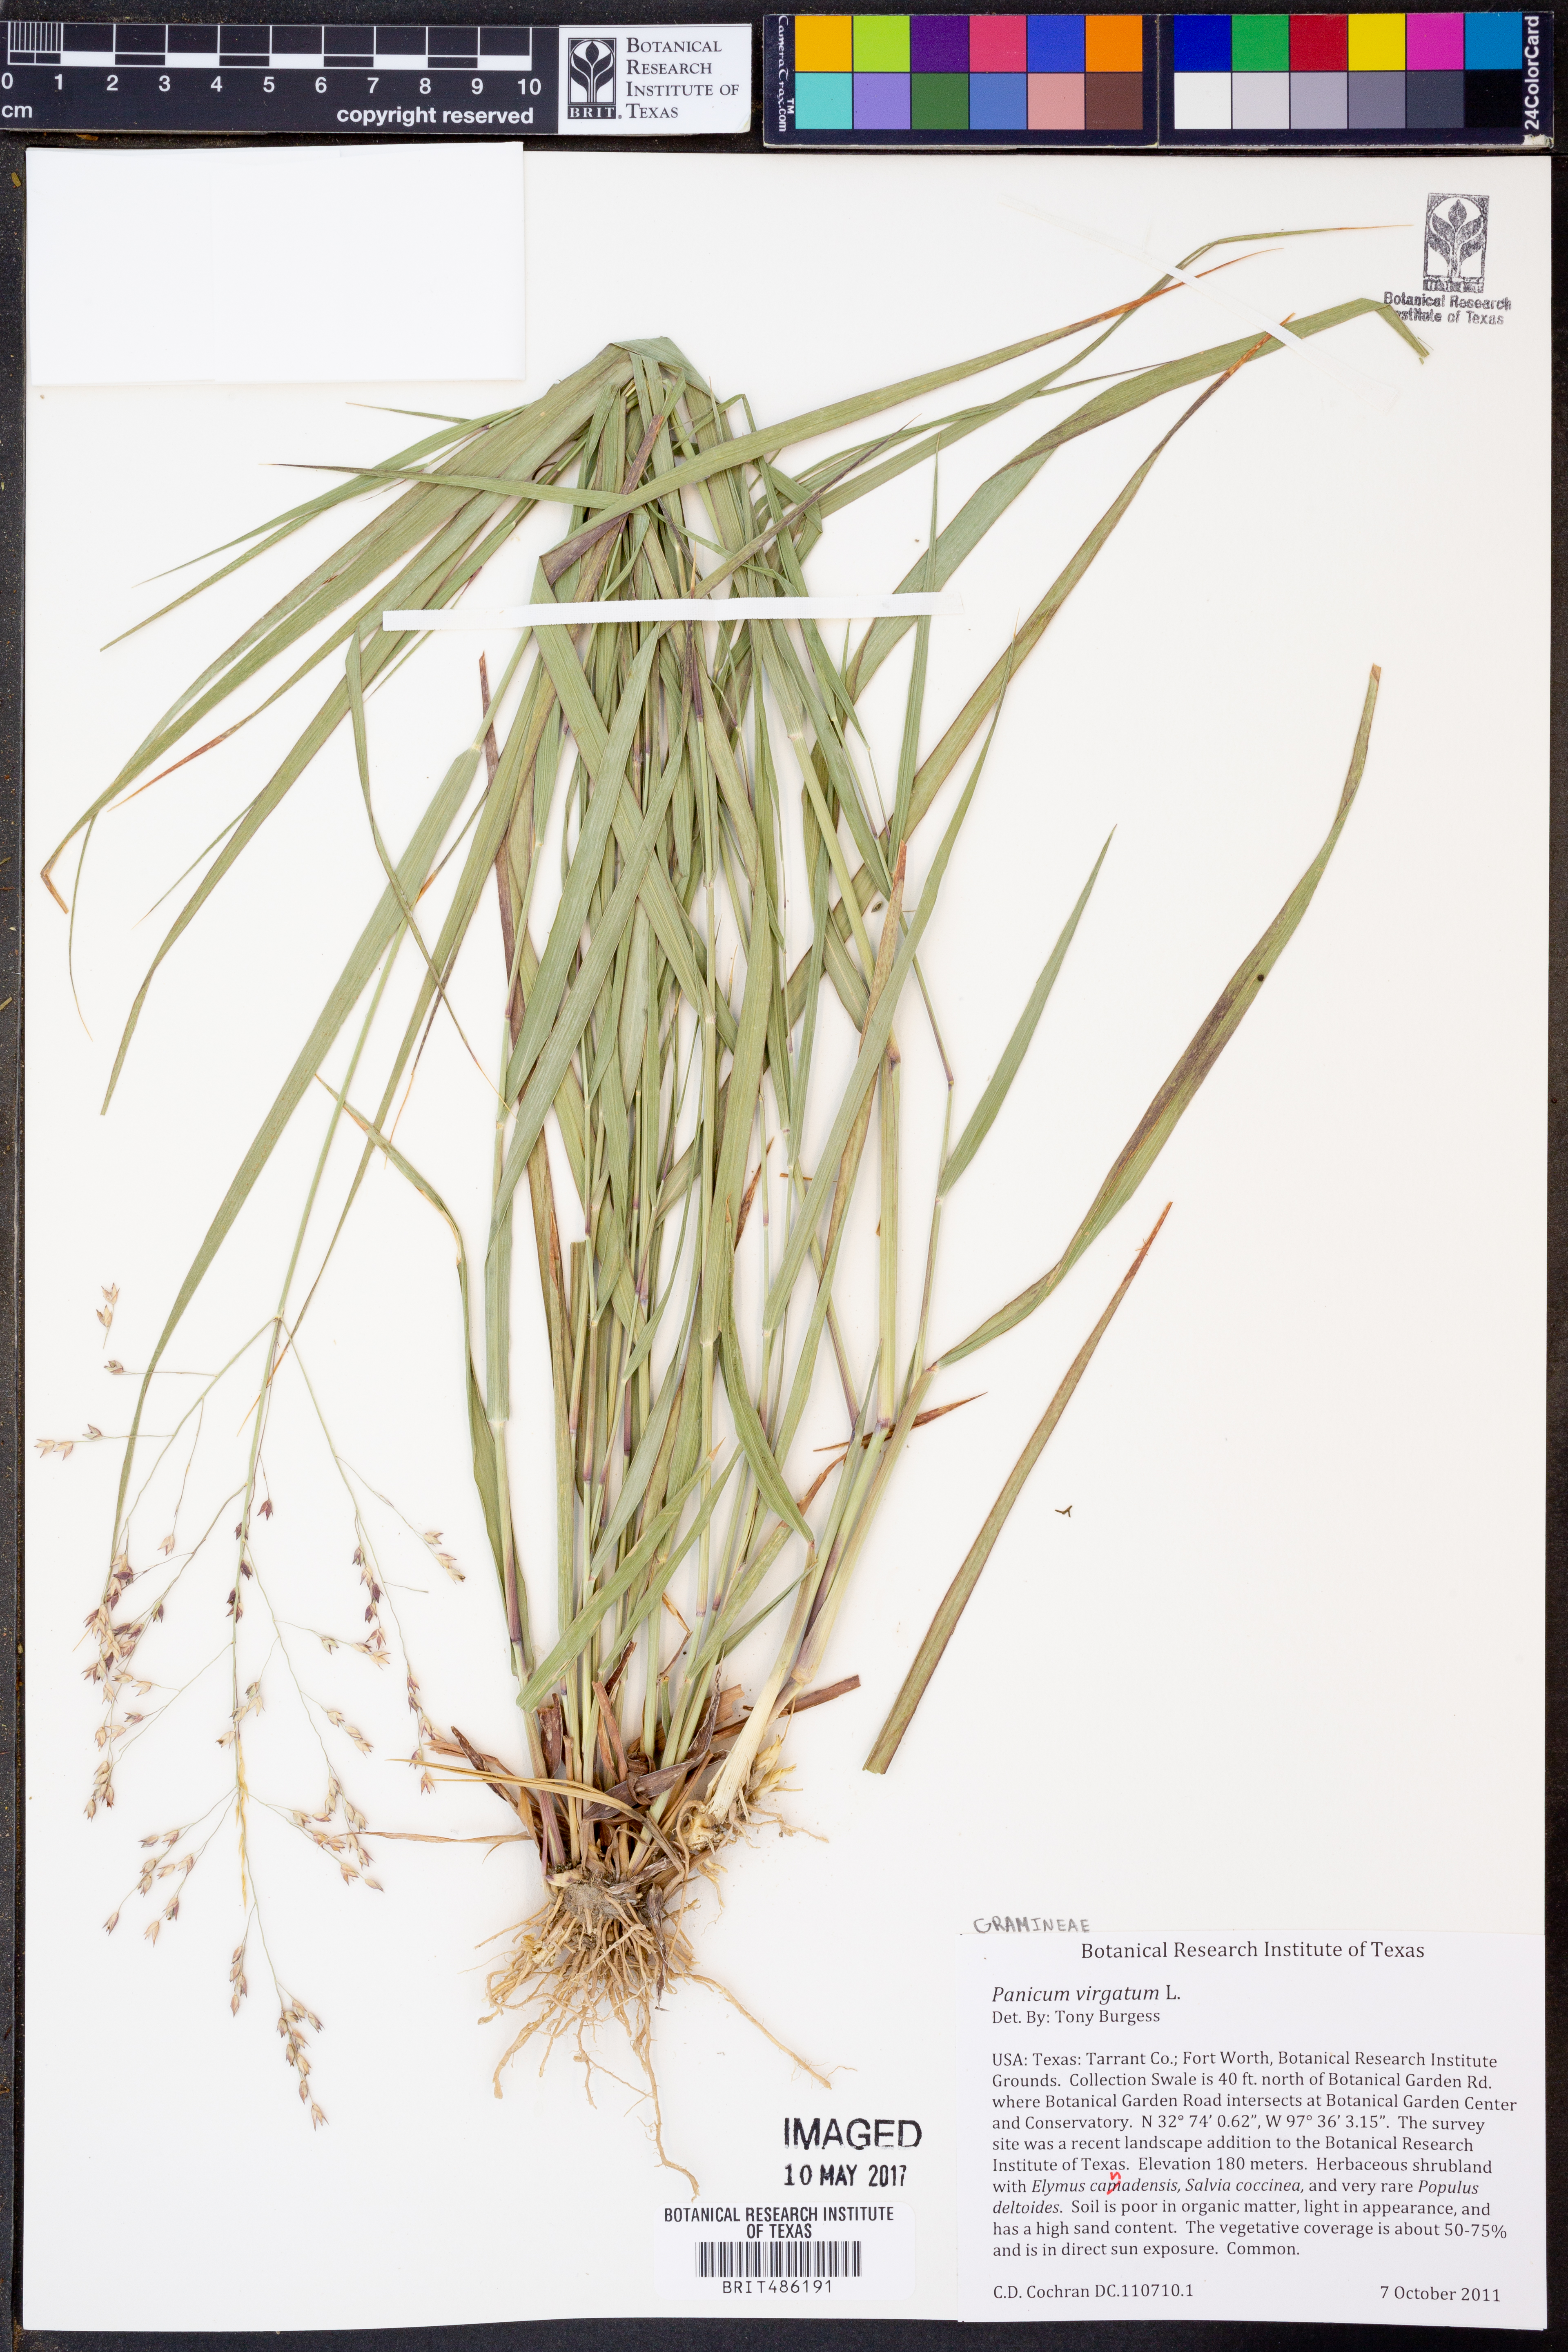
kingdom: Plantae
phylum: Tracheophyta
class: Liliopsida
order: Poales
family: Poaceae
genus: Panicum
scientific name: Panicum virgatum
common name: Switchgrass
